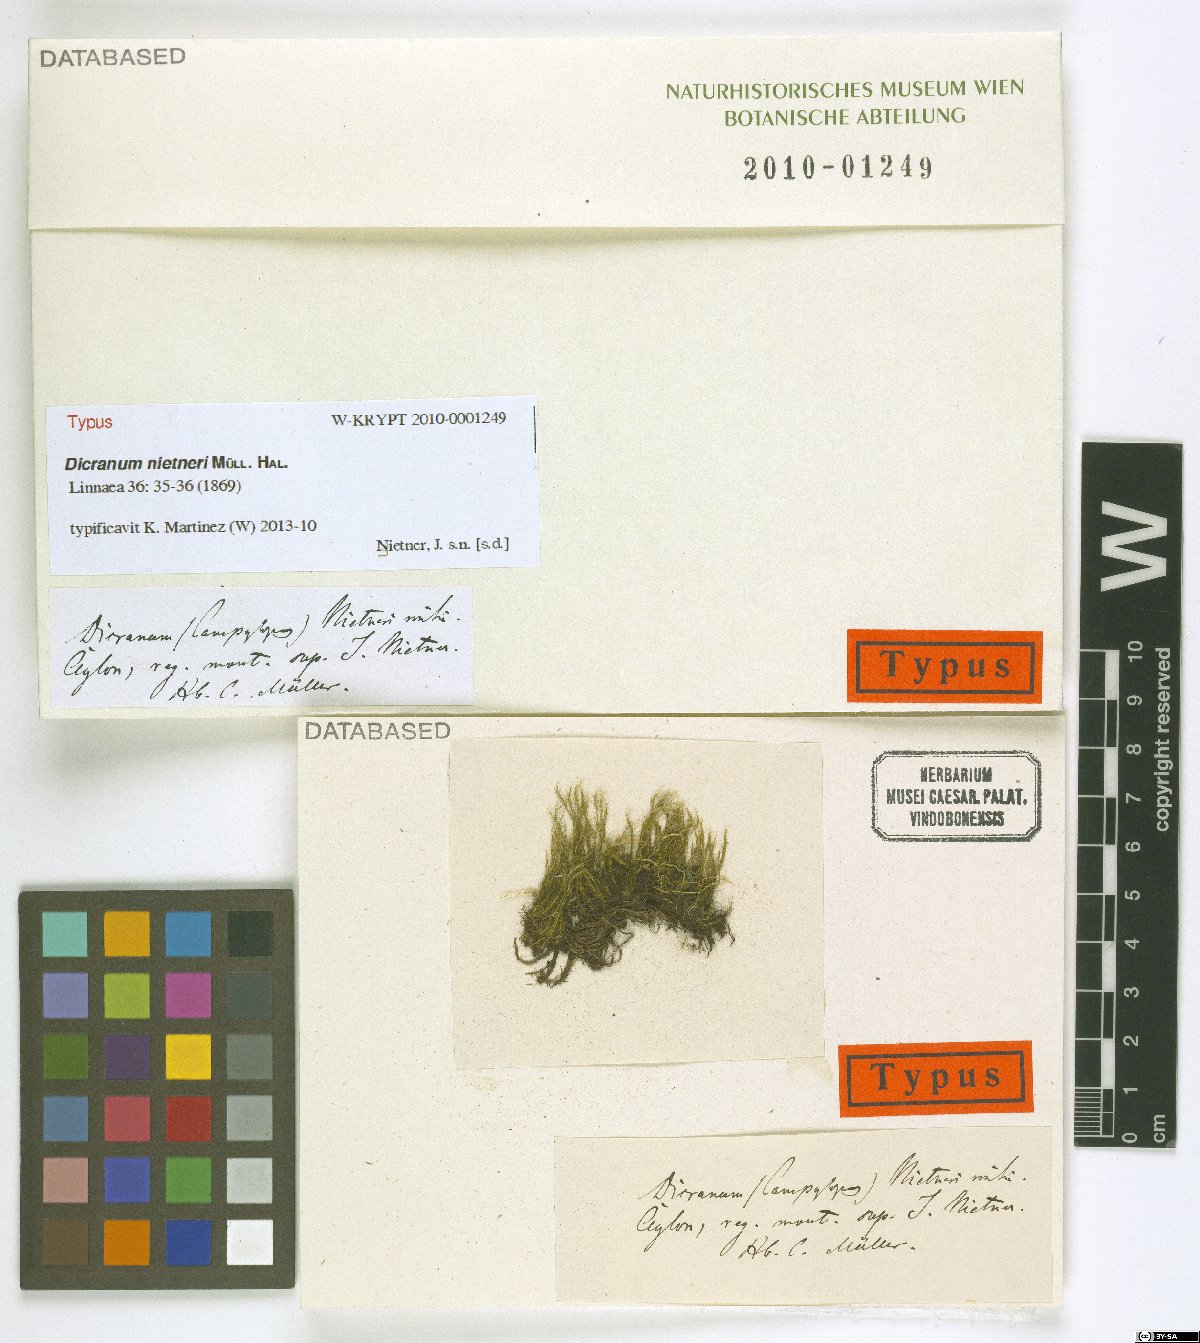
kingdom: Plantae
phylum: Bryophyta
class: Bryopsida
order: Dicranales
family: Leucobryaceae
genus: Campylopus
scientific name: Campylopus fragilis
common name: Brittle swan-neck moss
